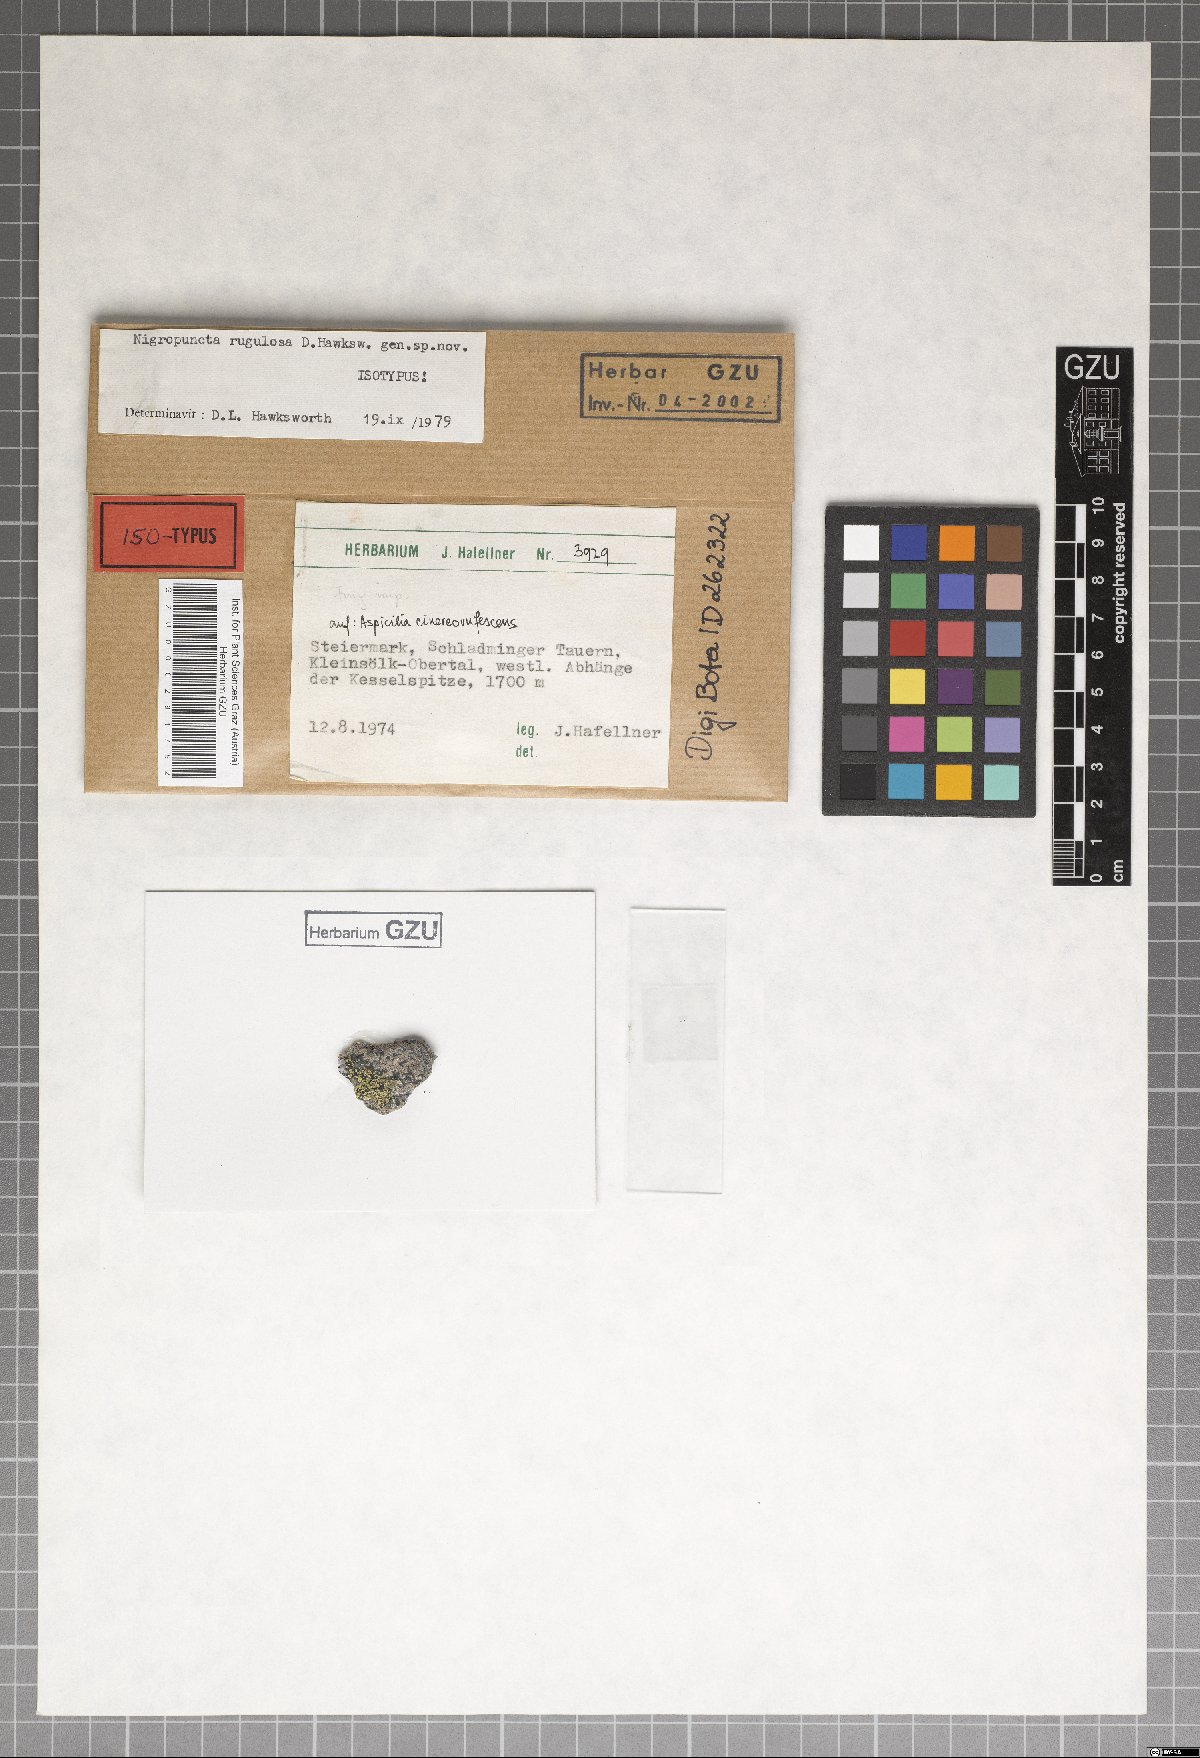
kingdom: Fungi
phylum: Ascomycota
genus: Nigropuncta
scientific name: Nigropuncta rugulosa
